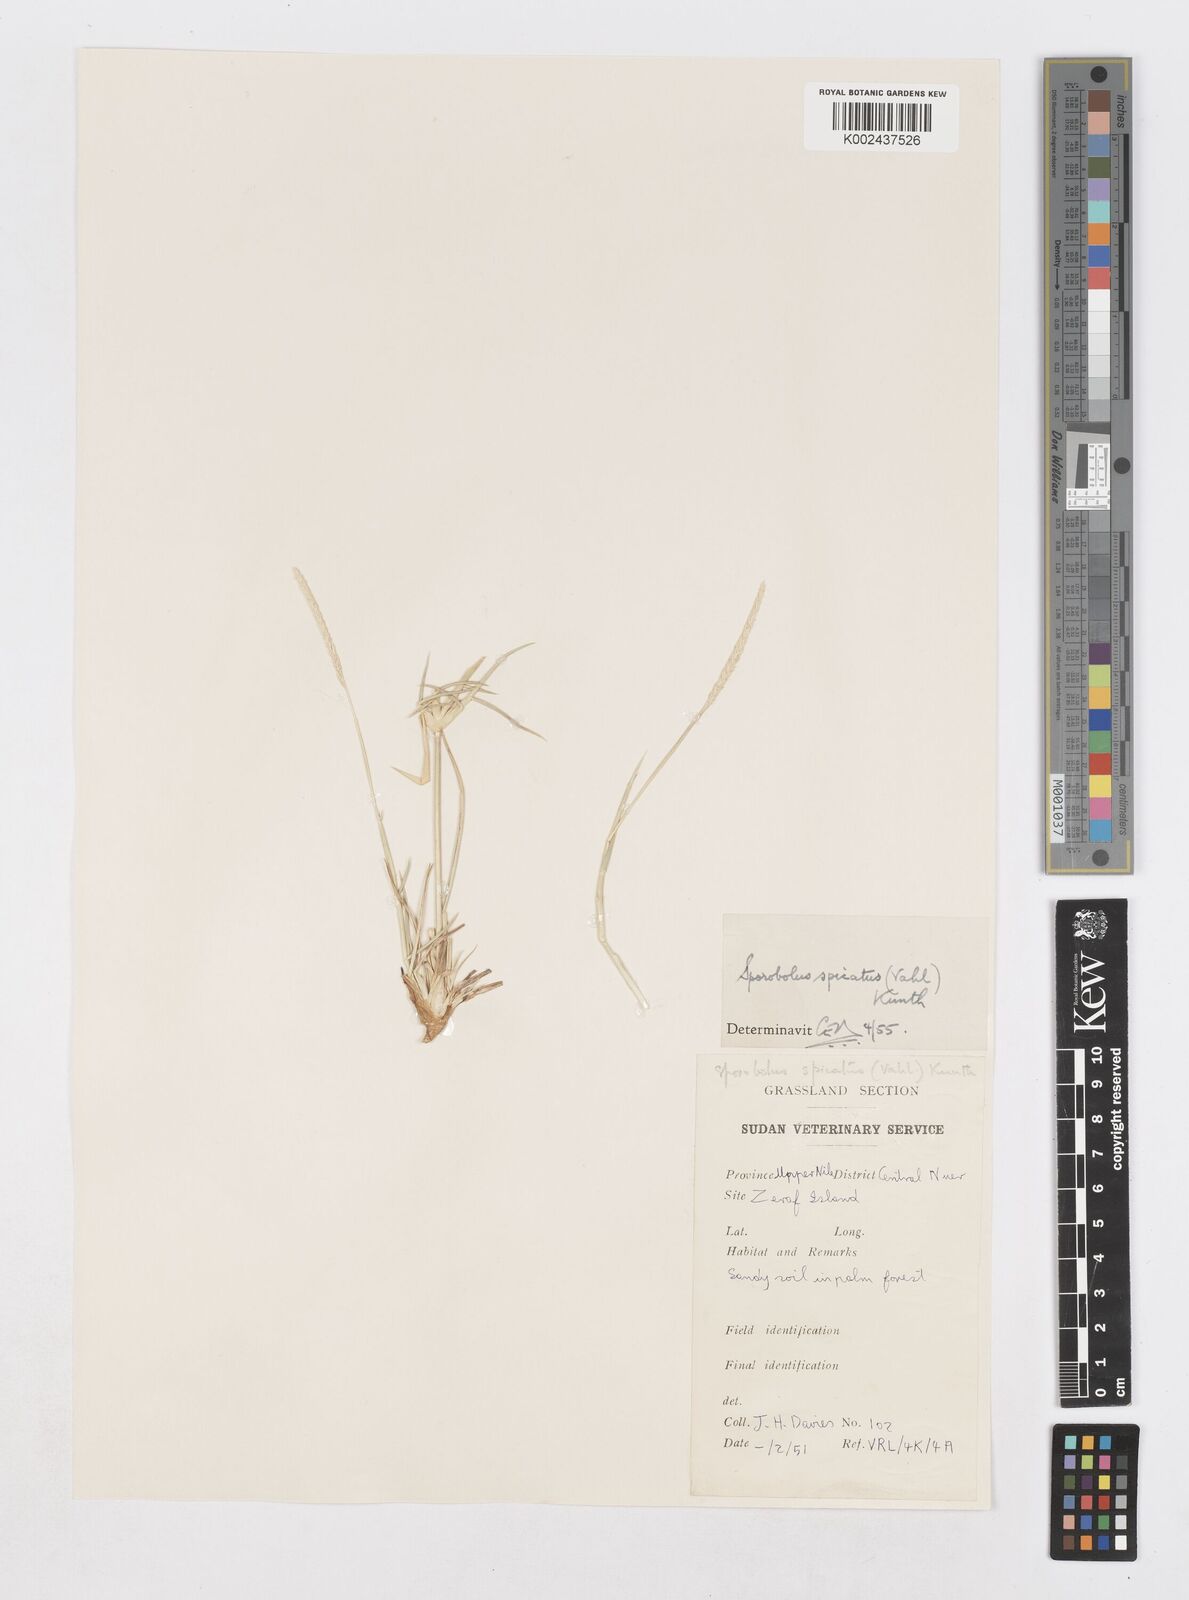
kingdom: Plantae
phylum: Tracheophyta
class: Liliopsida
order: Poales
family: Poaceae
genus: Sporobolus
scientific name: Sporobolus spicatus
